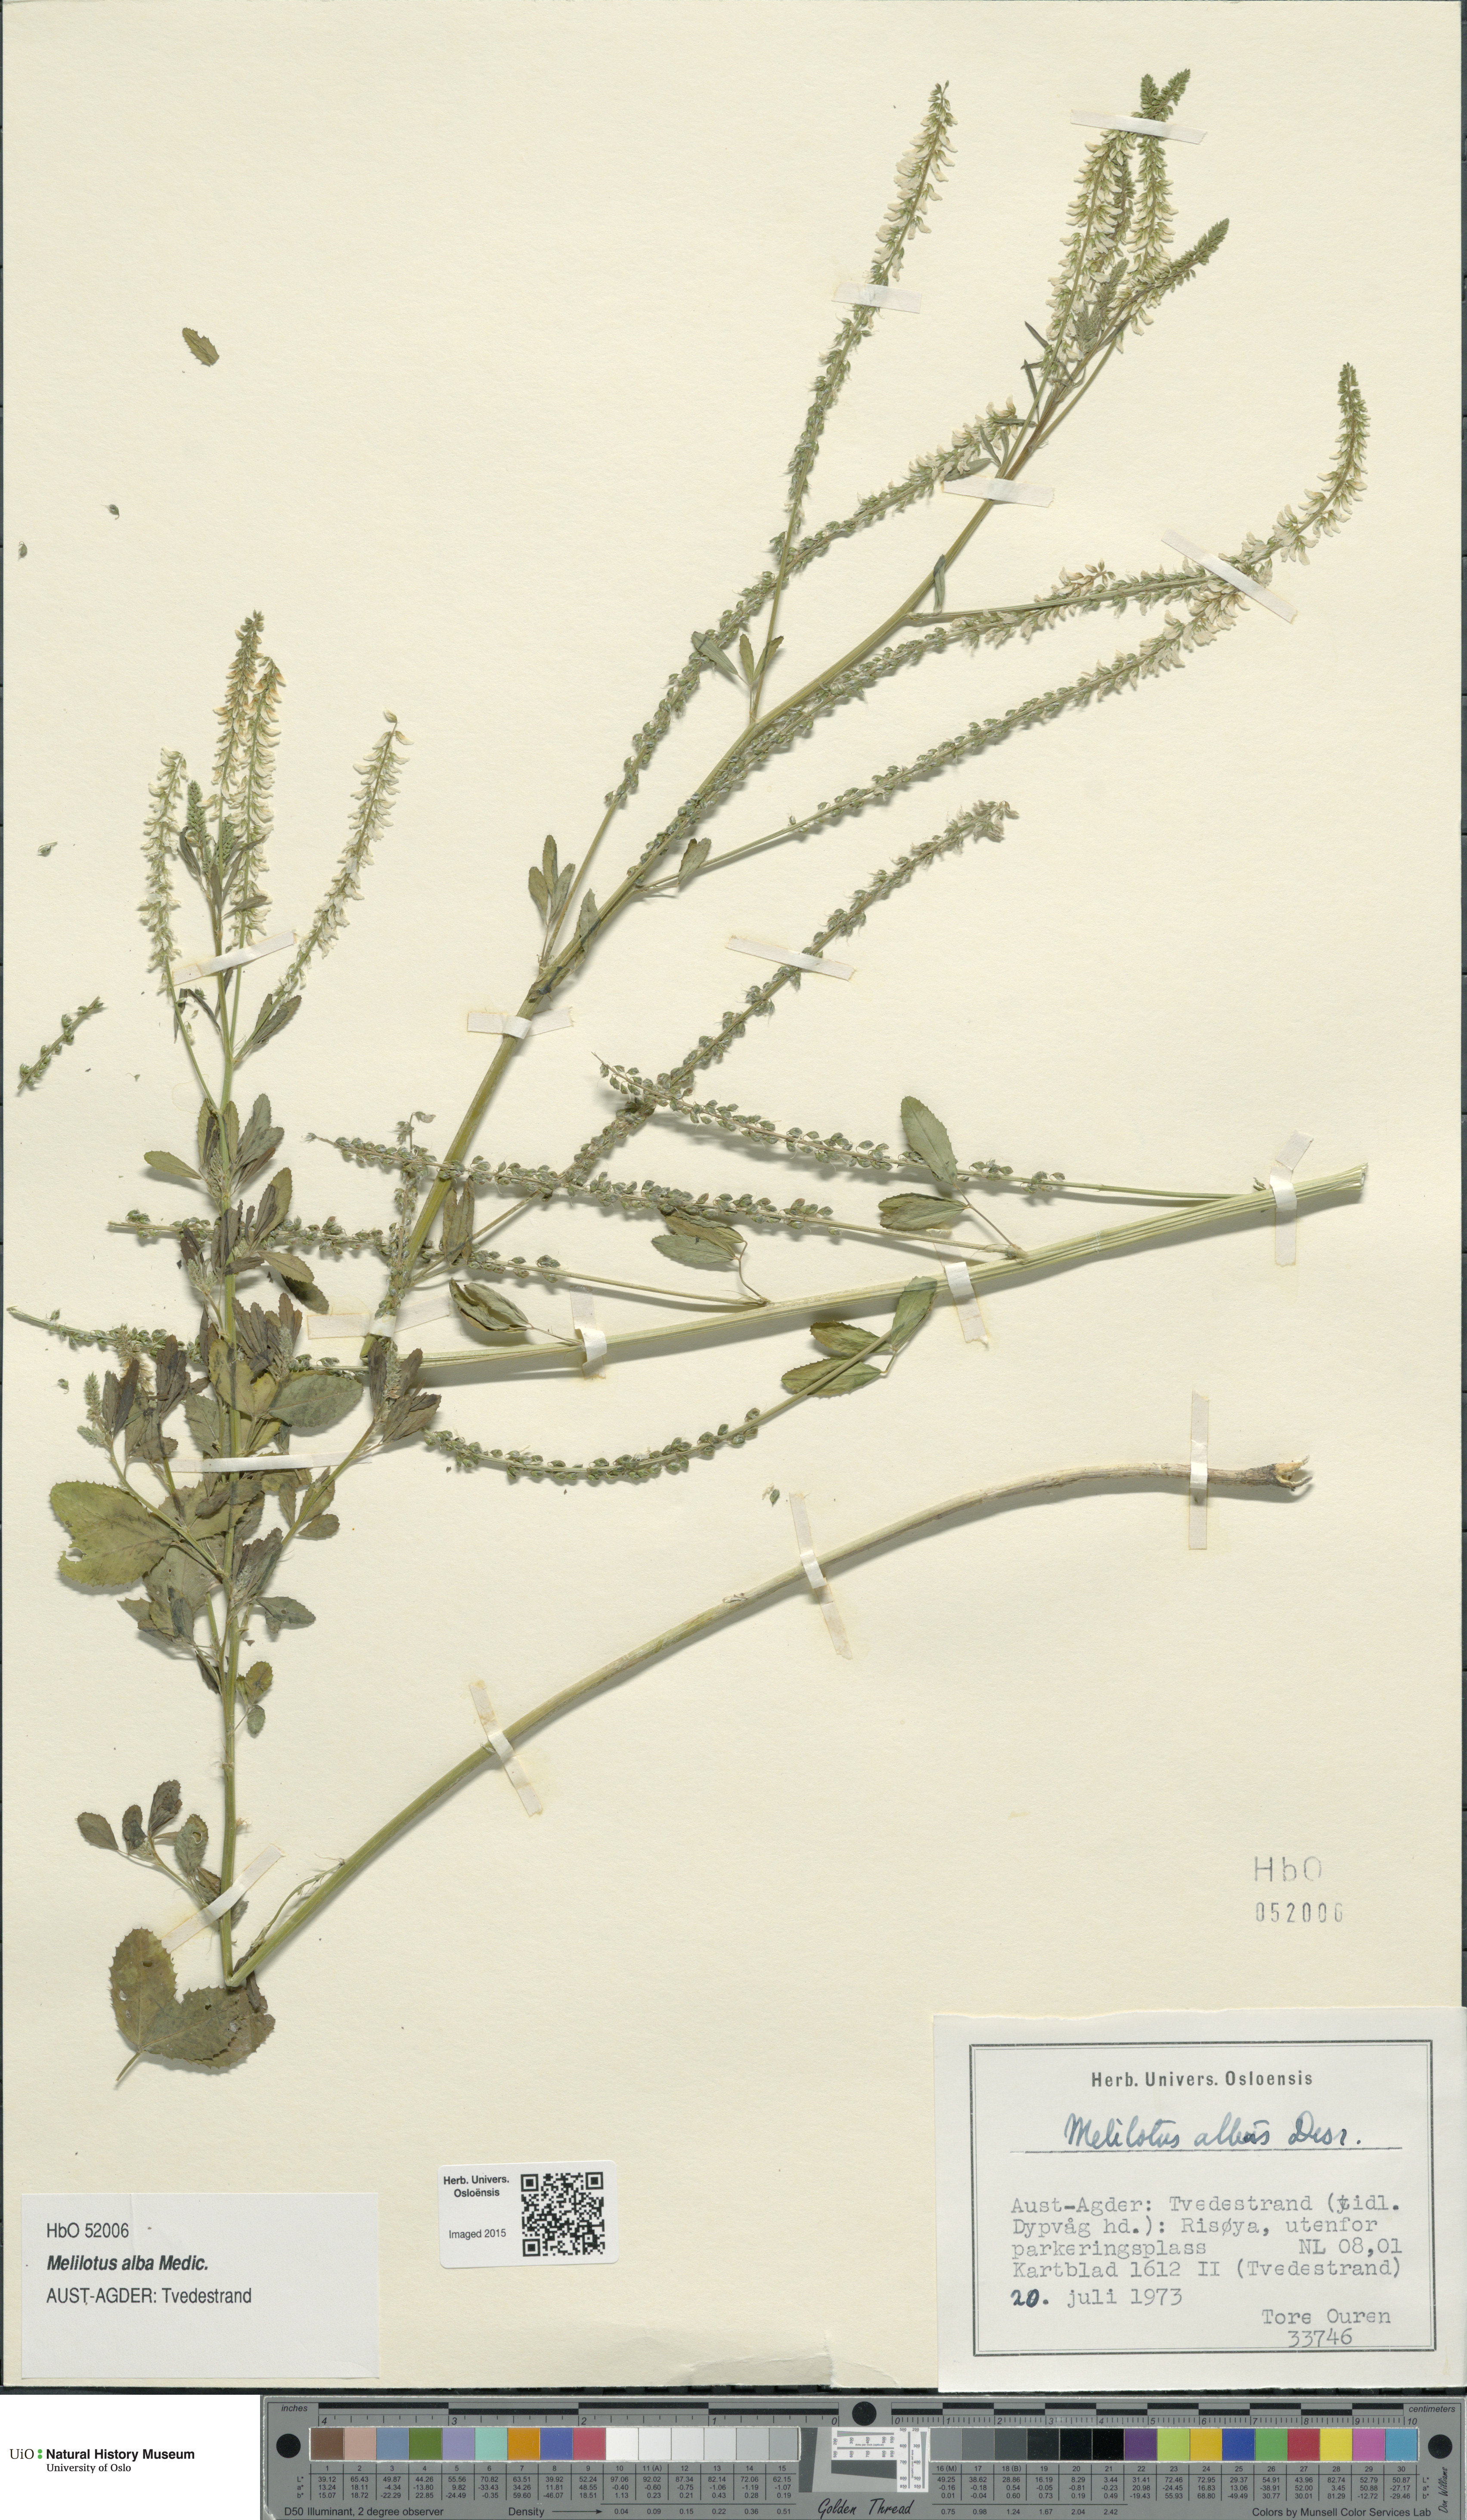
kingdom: Plantae
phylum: Tracheophyta
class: Magnoliopsida
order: Fabales
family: Fabaceae
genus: Melilotus
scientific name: Melilotus albus
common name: White melilot
